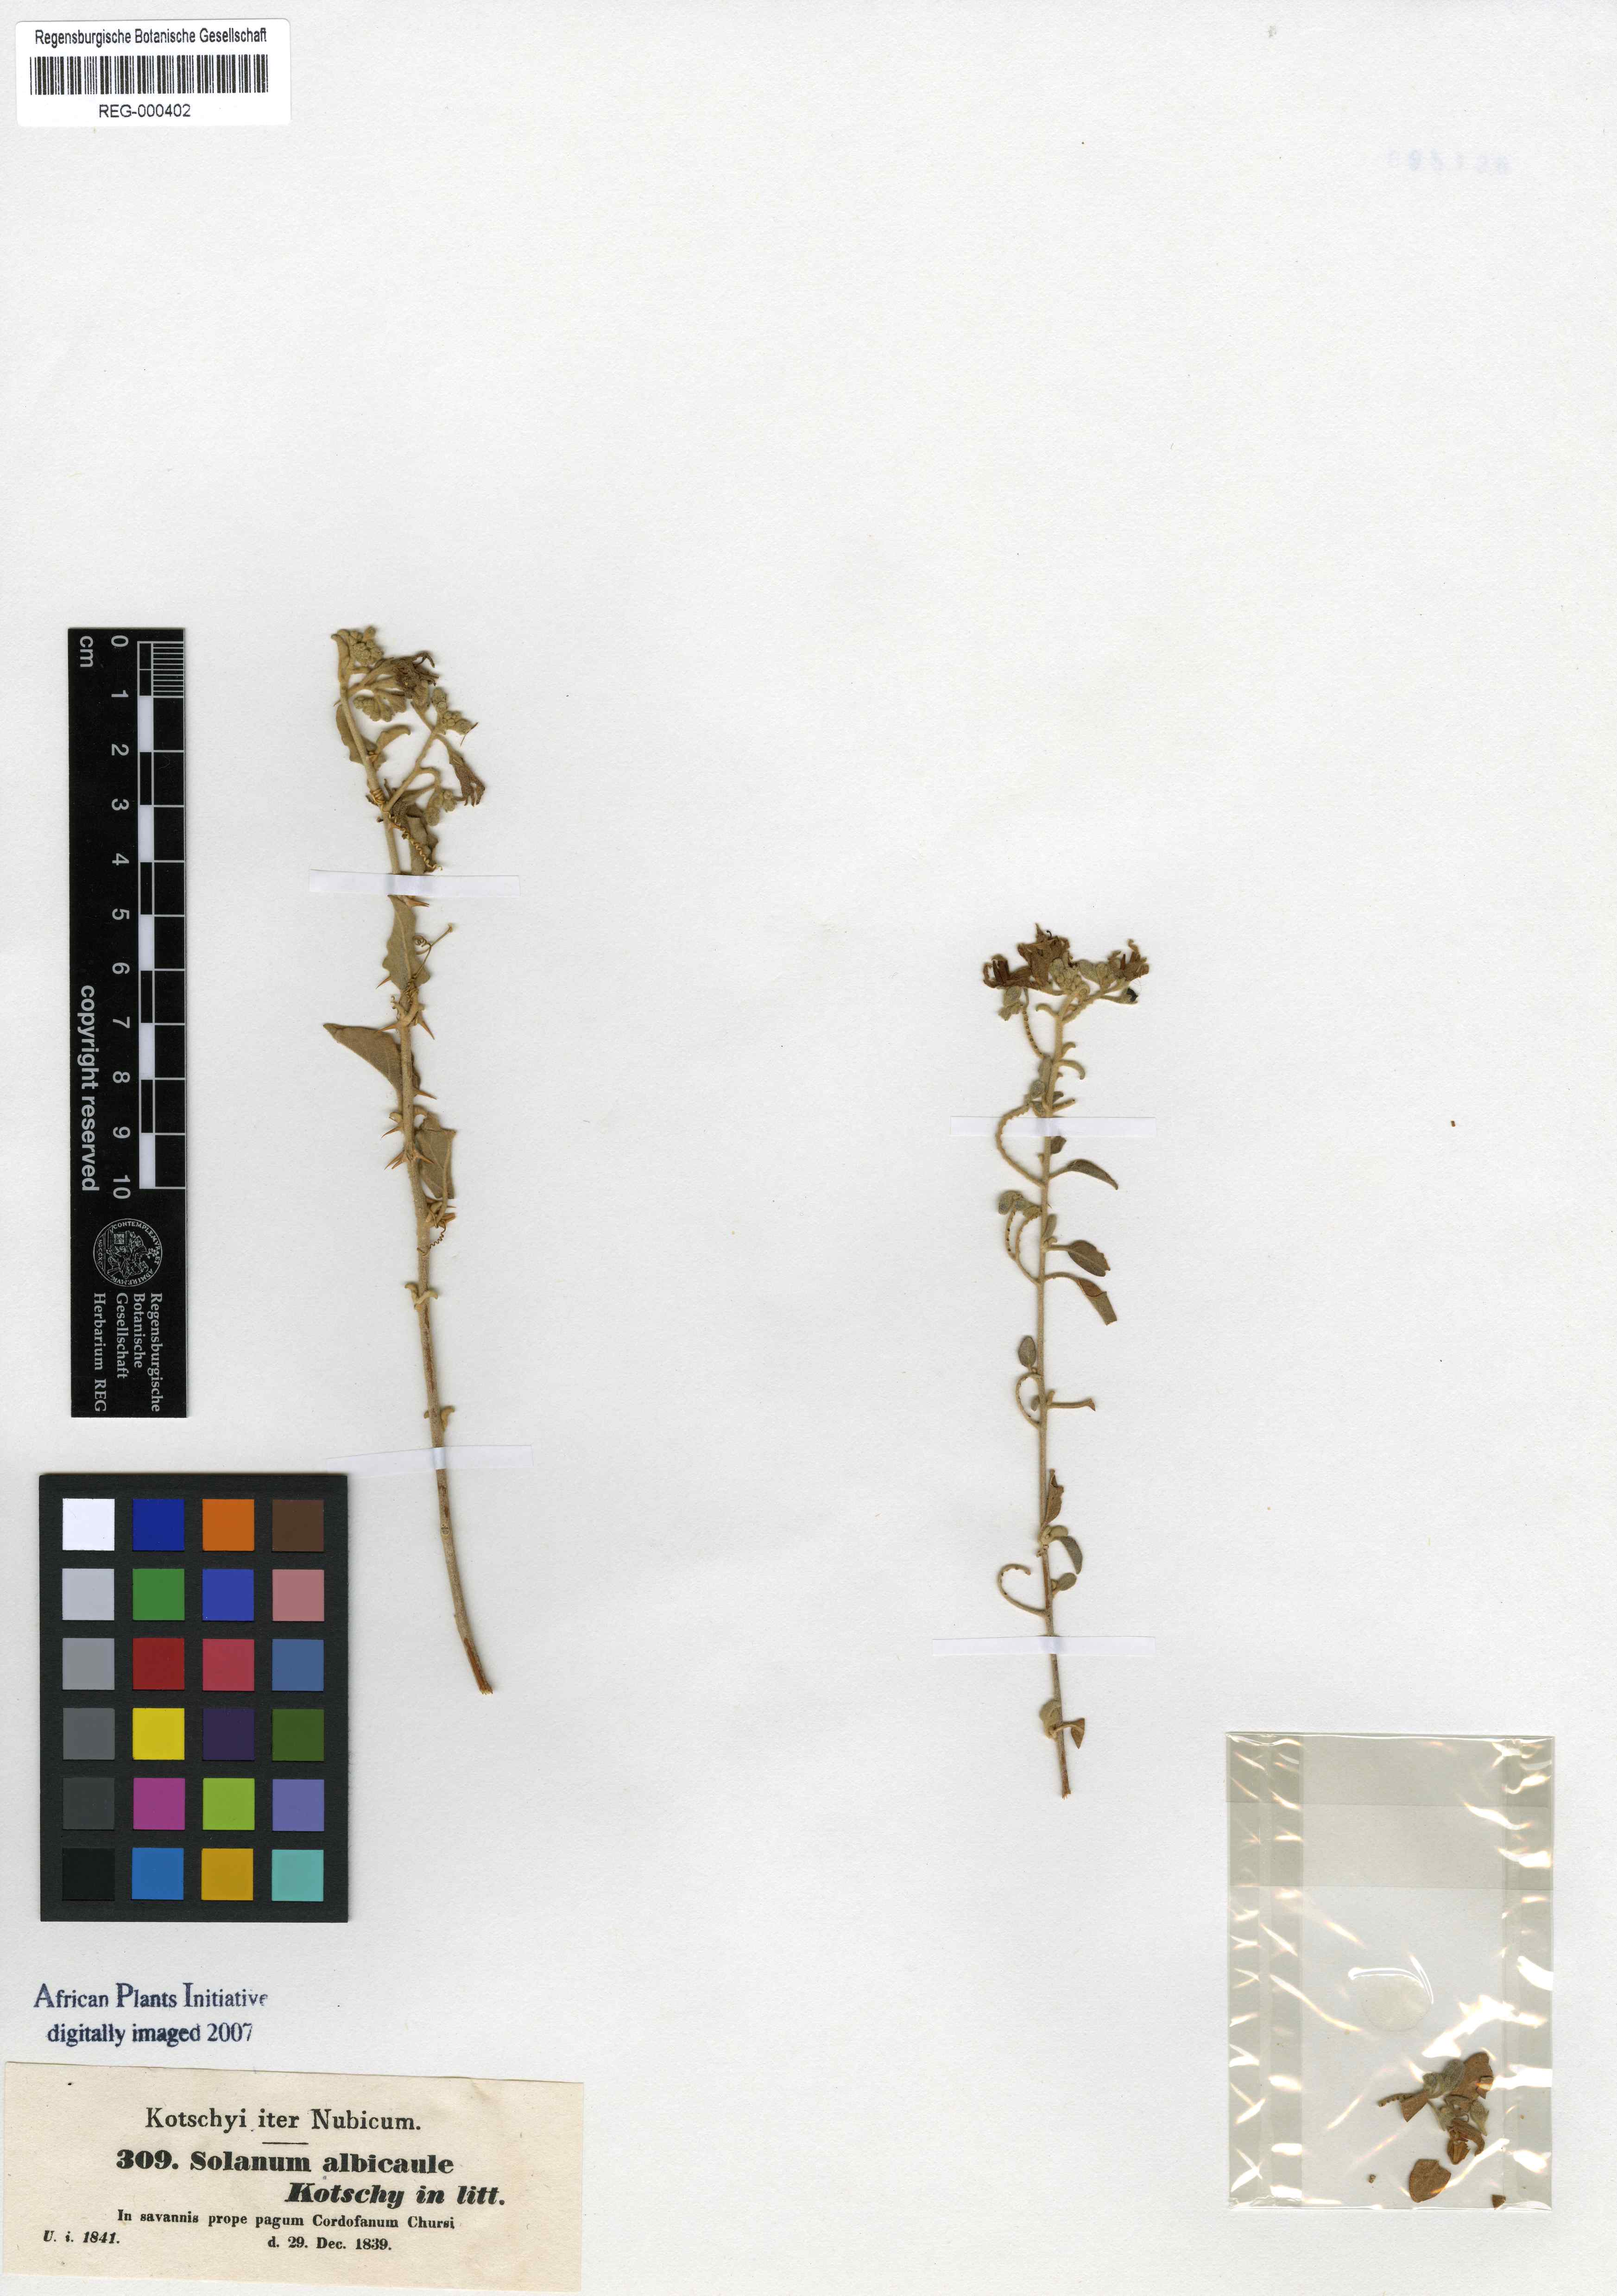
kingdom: Plantae
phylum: Tracheophyta
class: Magnoliopsida
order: Solanales
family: Solanaceae
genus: Solanum
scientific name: Solanum forsskaolii
